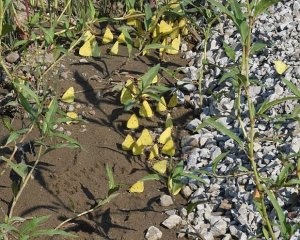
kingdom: Animalia
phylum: Arthropoda
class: Insecta
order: Lepidoptera
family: Pieridae
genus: Colias
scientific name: Colias eurytheme
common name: Orange Sulphur
